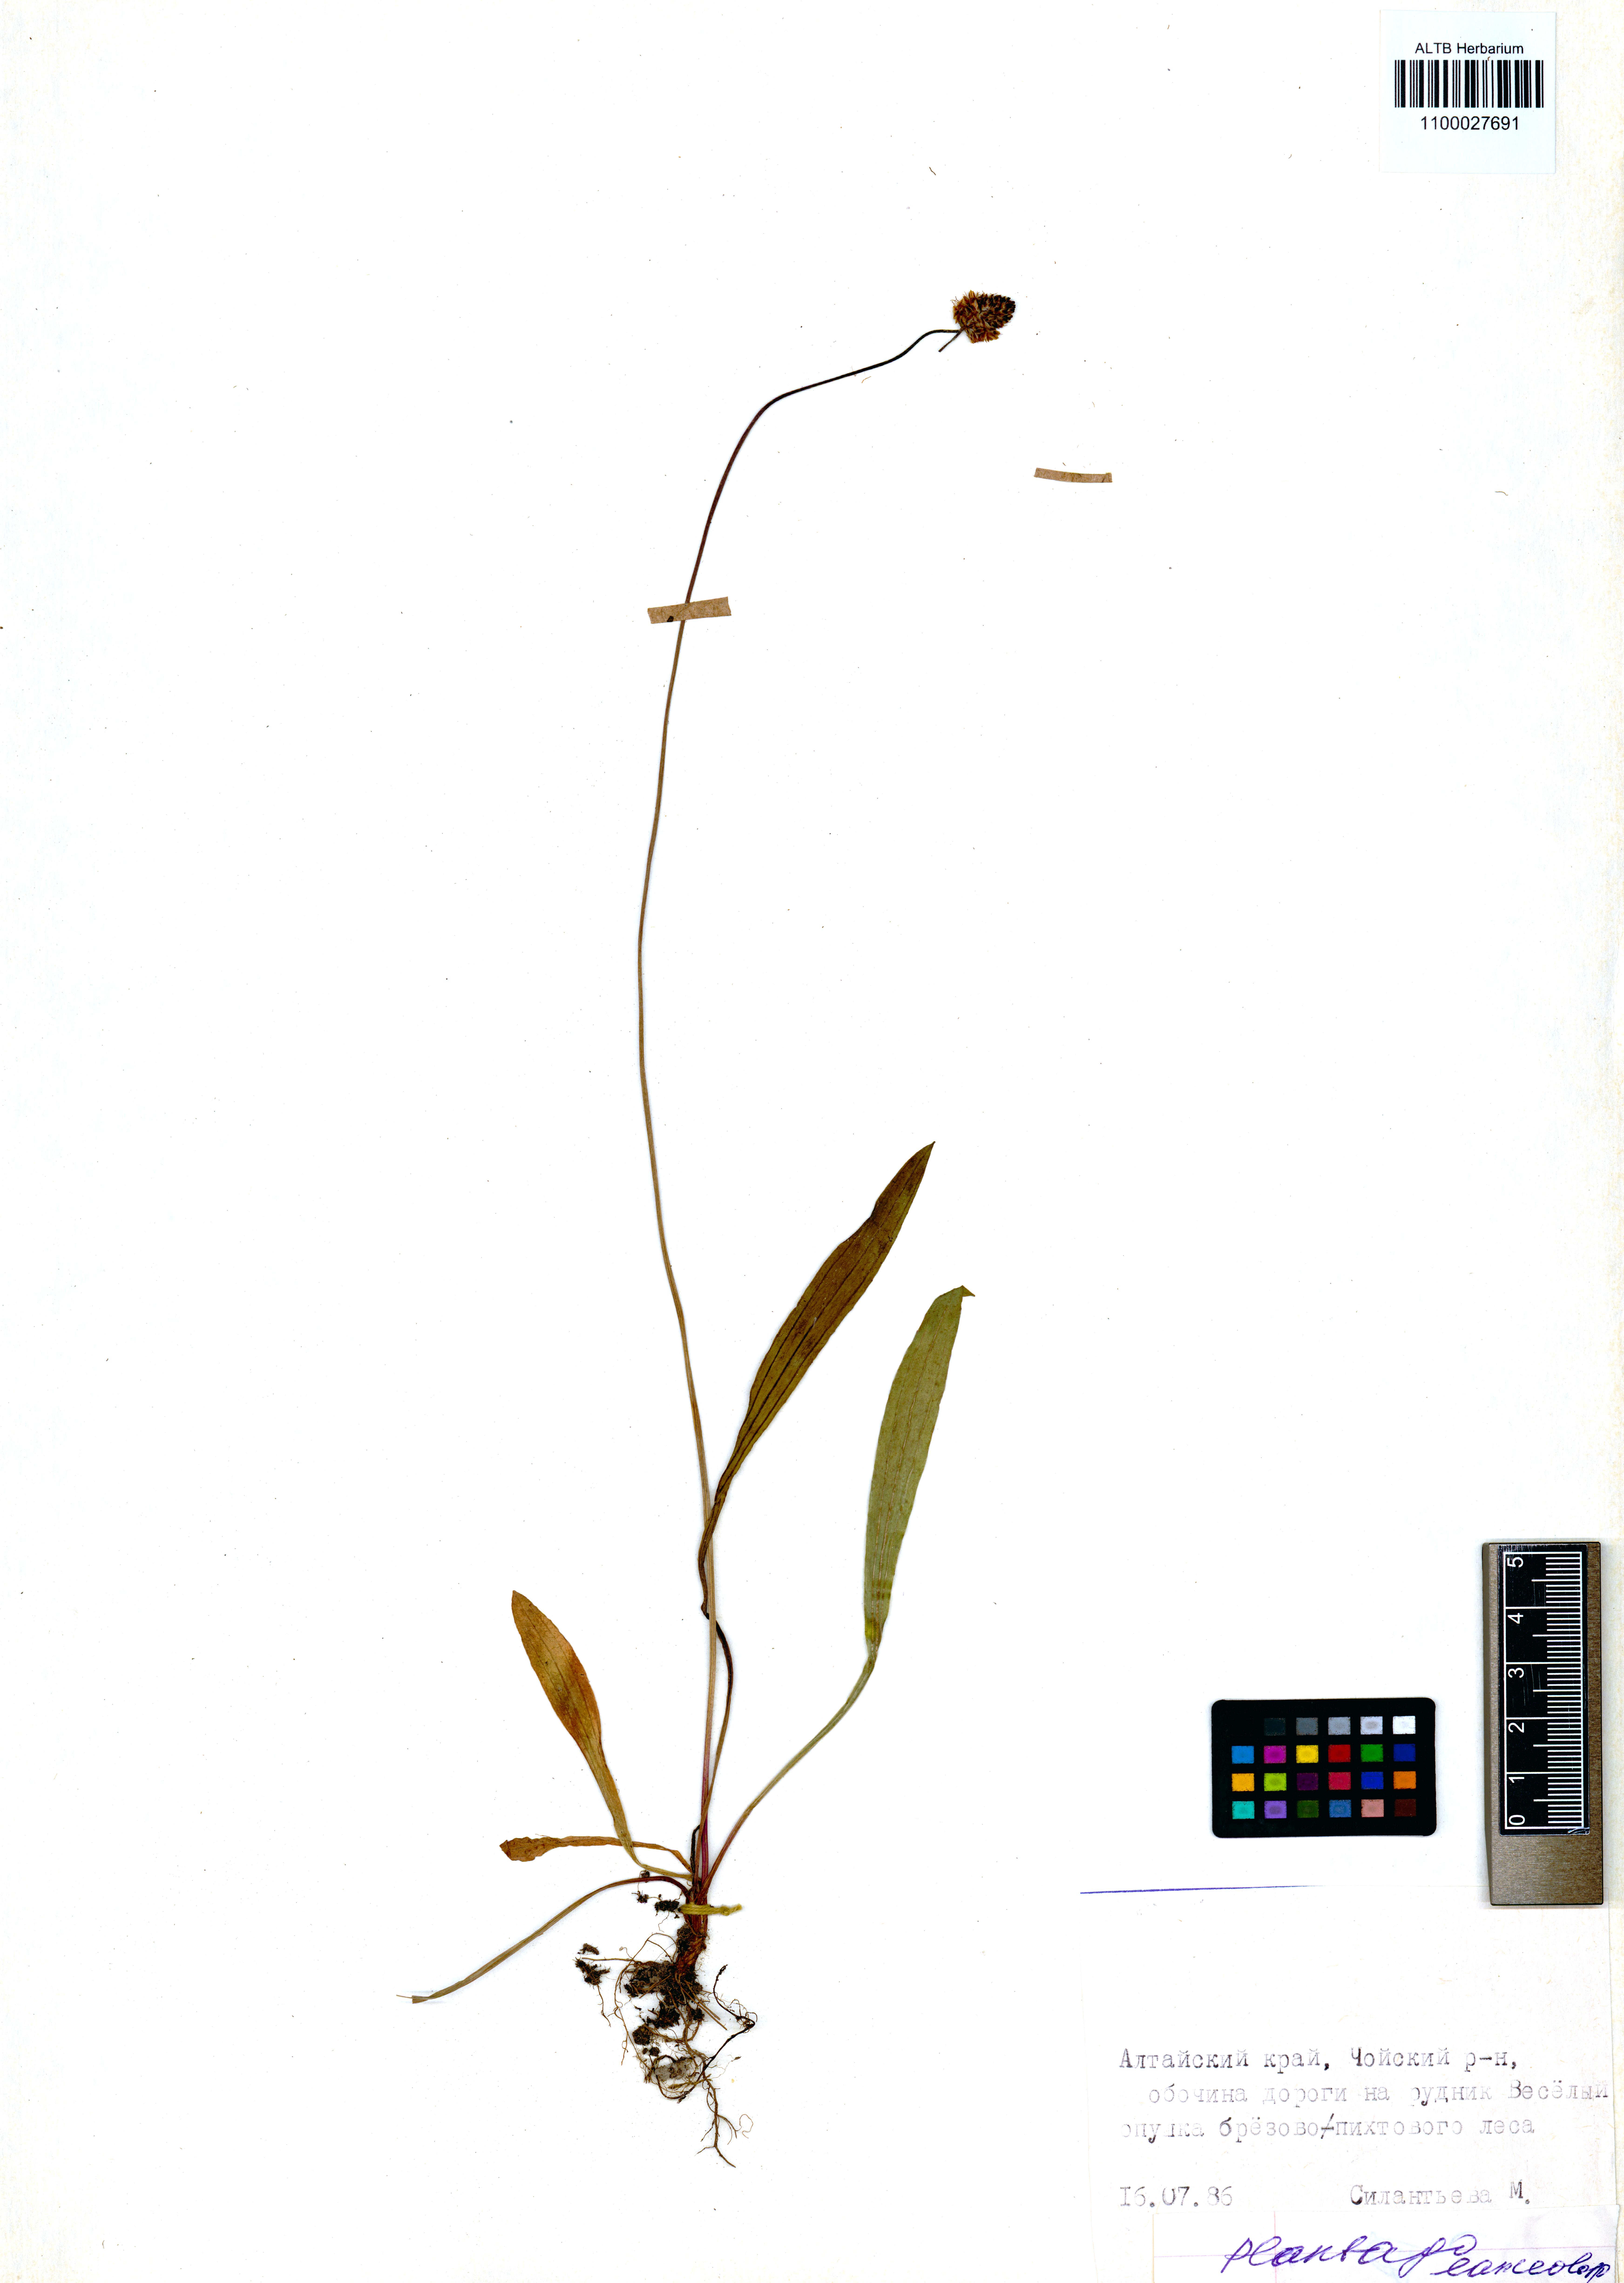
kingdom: Plantae
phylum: Tracheophyta
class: Magnoliopsida
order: Lamiales
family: Plantaginaceae
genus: Plantago
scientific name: Plantago lanceolata
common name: Ribwort plantain
